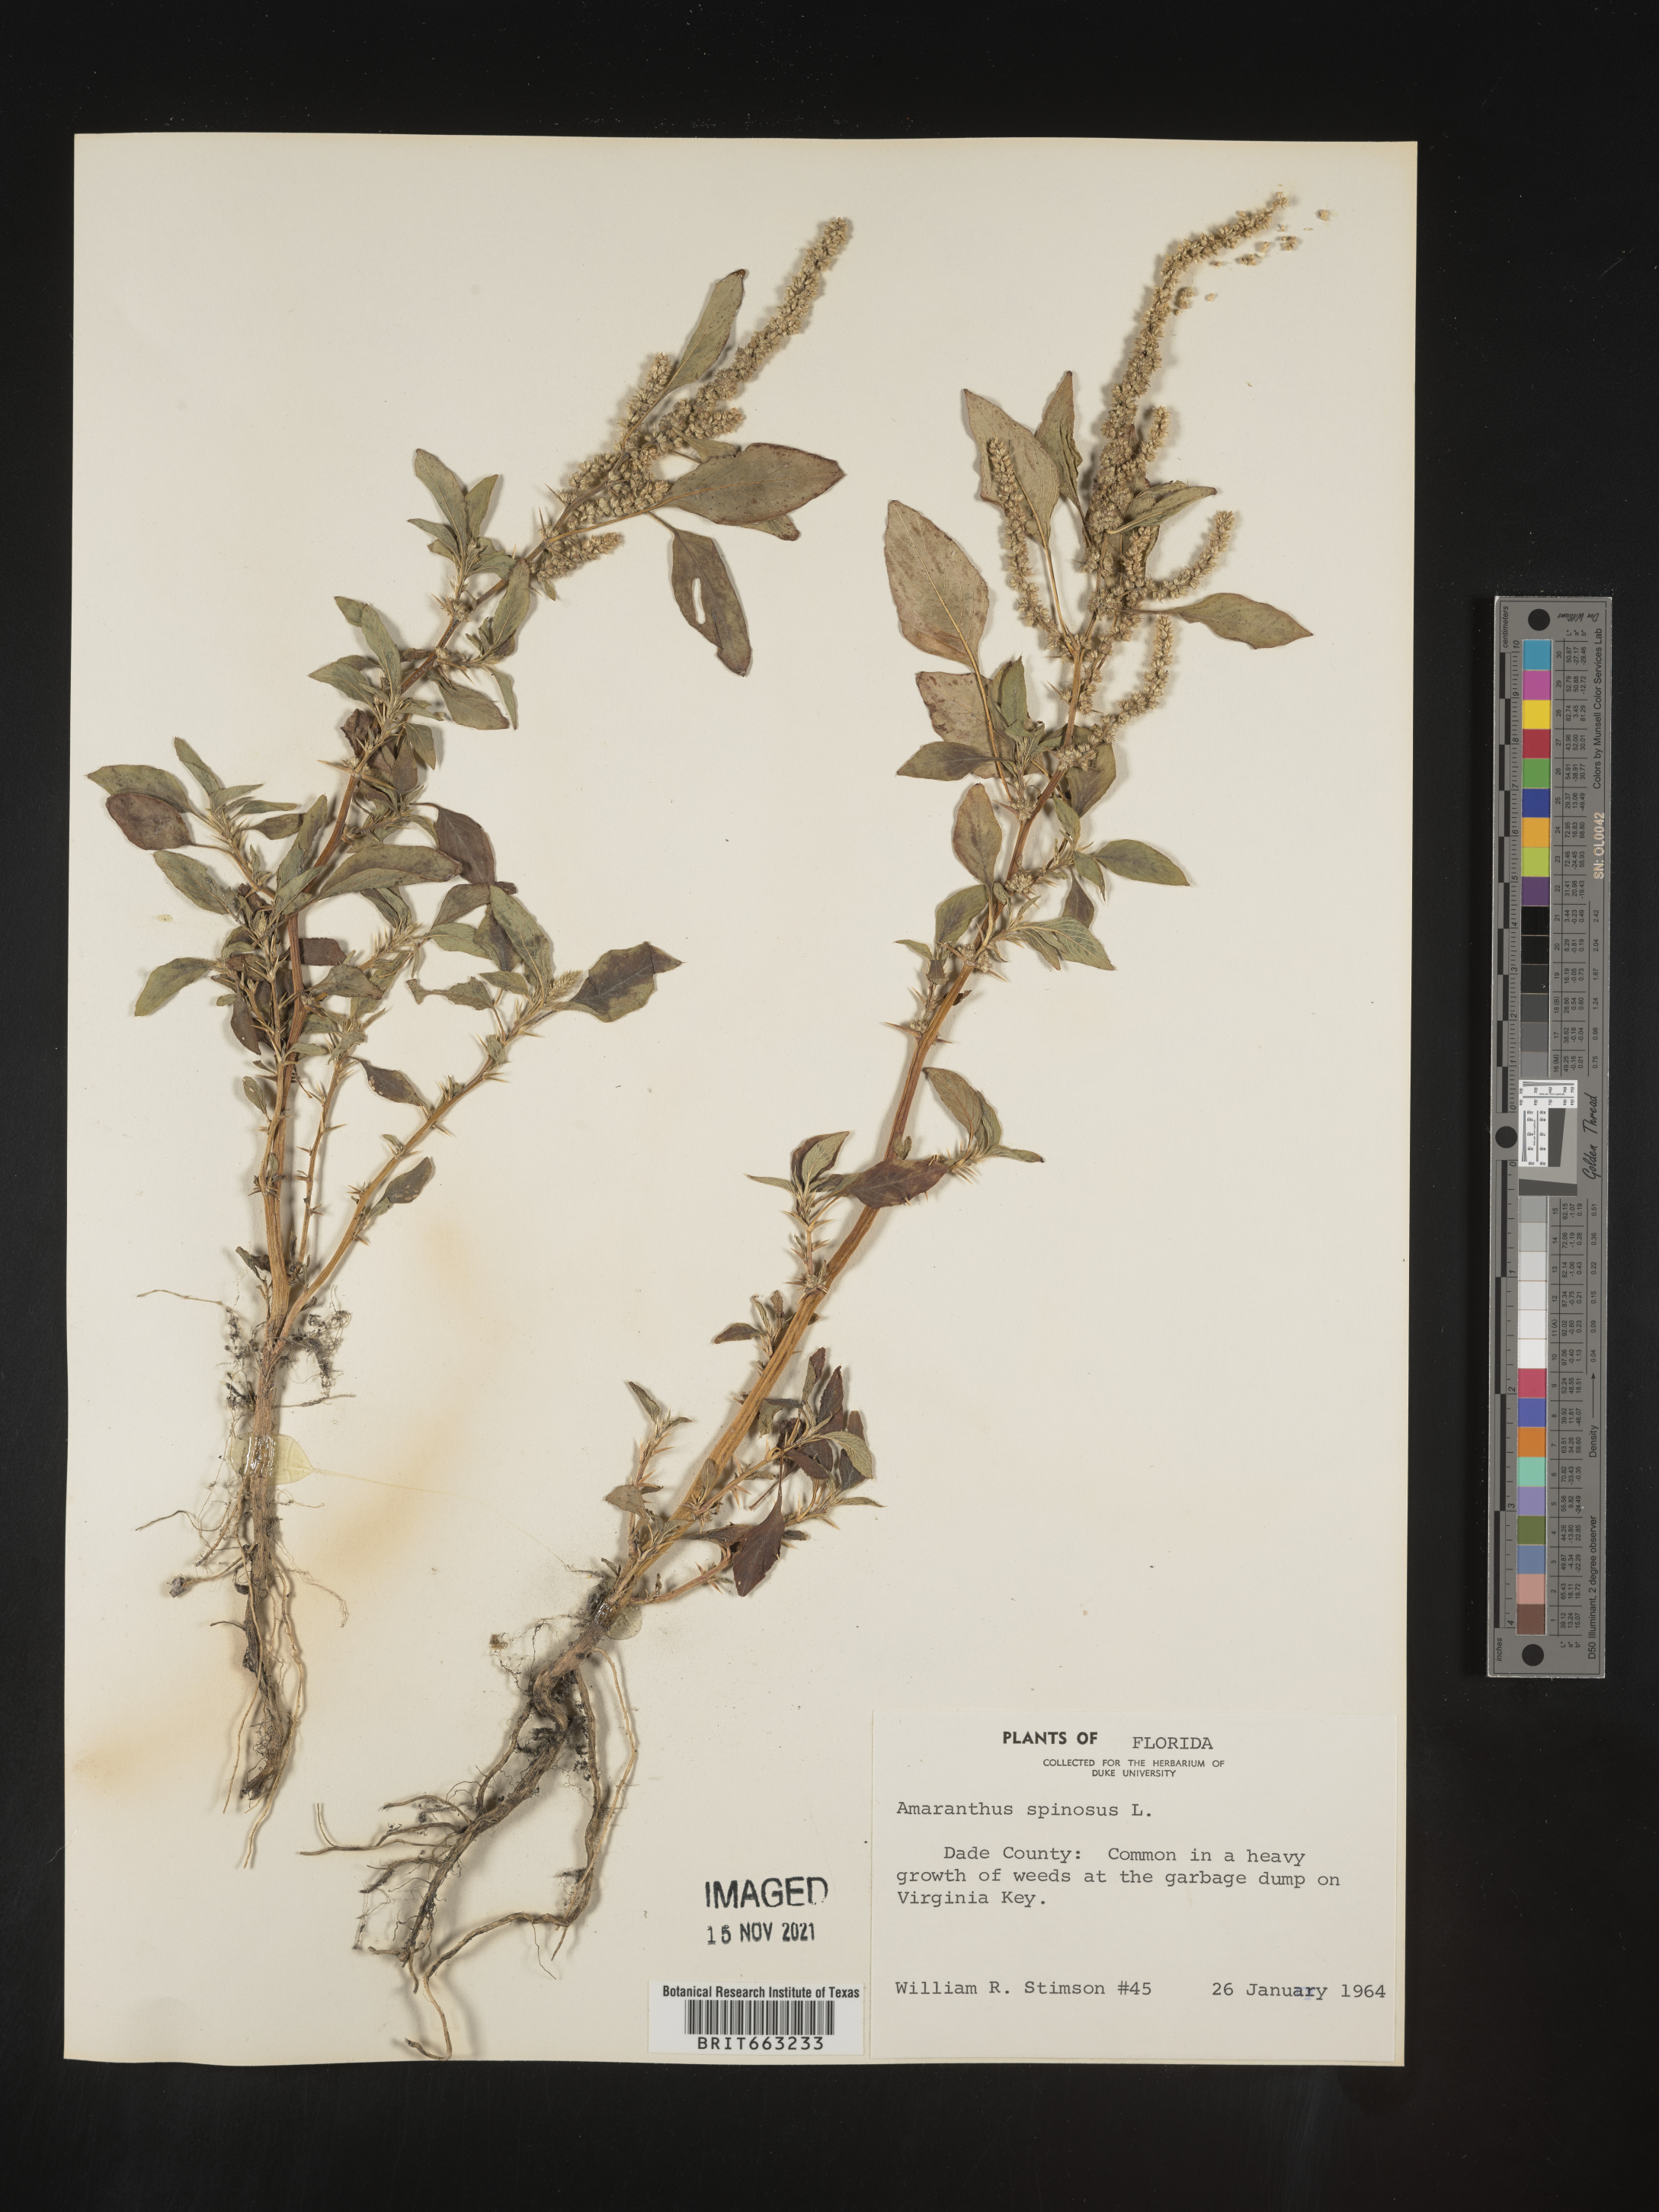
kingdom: Plantae
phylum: Tracheophyta
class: Magnoliopsida
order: Caryophyllales
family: Amaranthaceae
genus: Amaranthus
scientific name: Amaranthus spinosus
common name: Spiny amaranth
